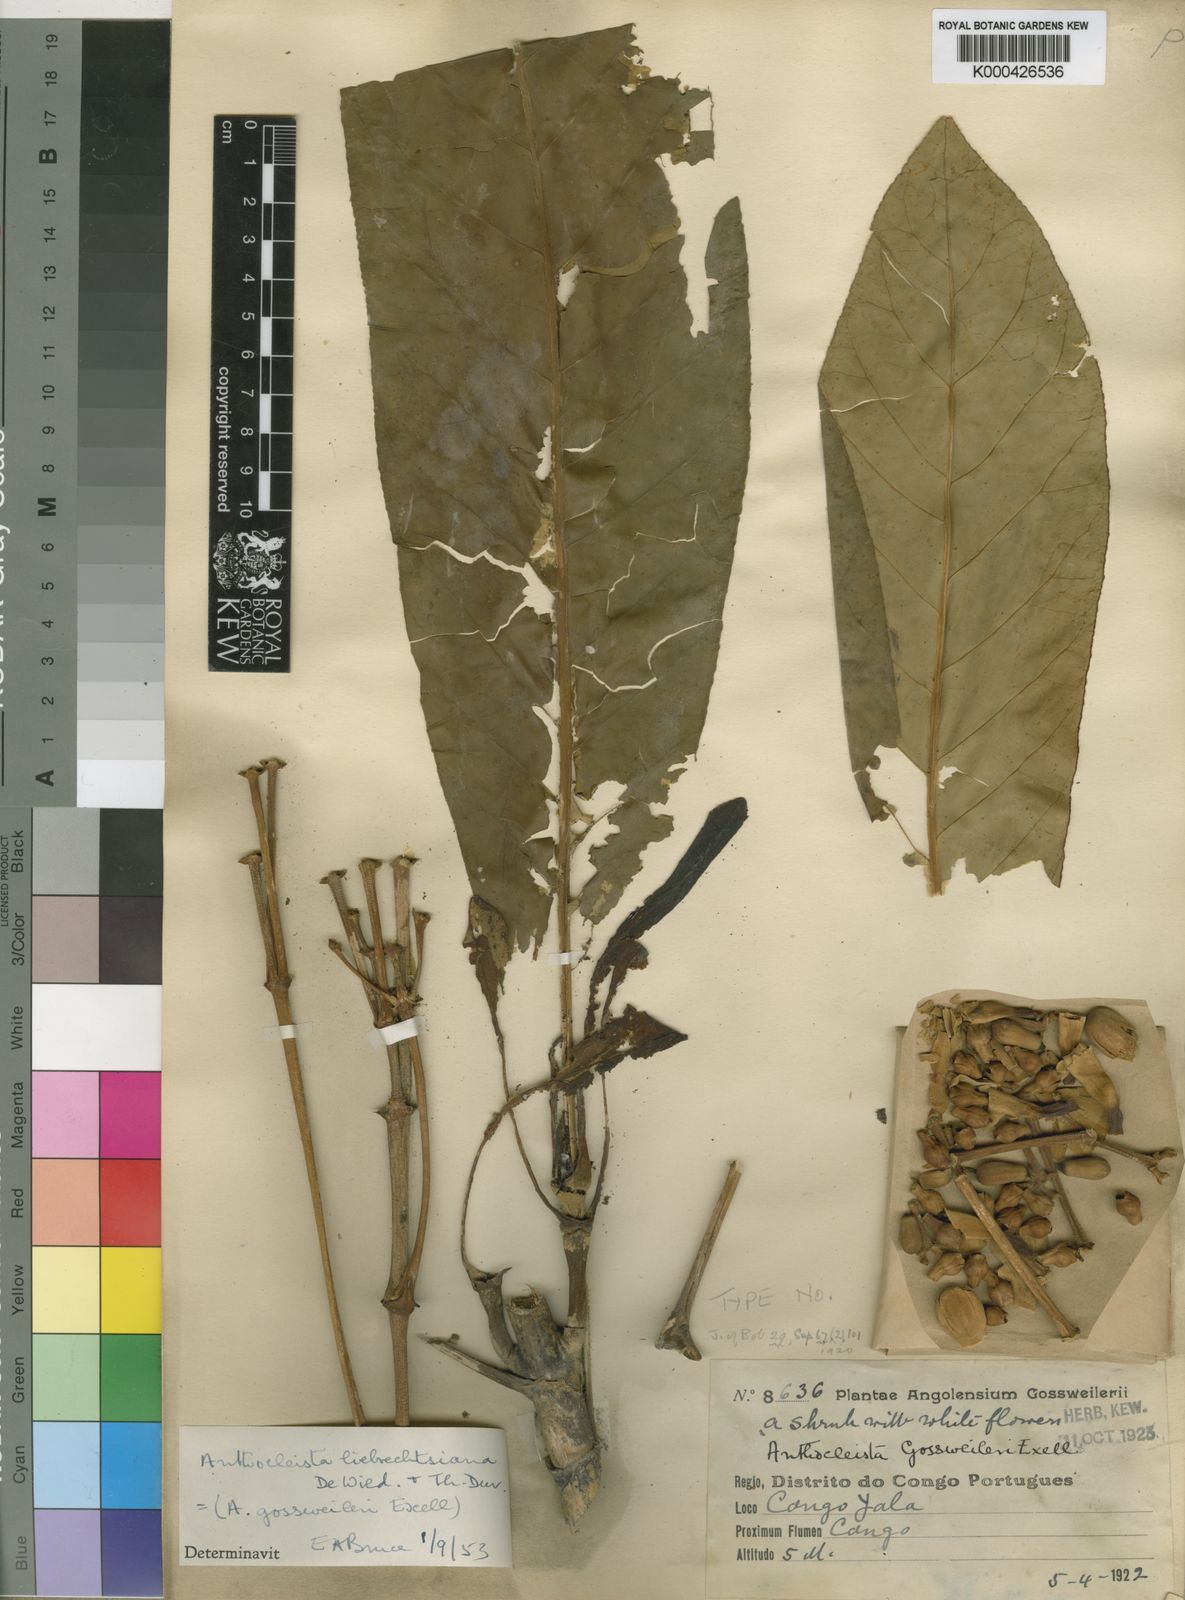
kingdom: Plantae
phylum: Tracheophyta
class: Magnoliopsida
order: Gentianales
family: Gentianaceae
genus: Anthocleista
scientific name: Anthocleista liebrechtsiana
